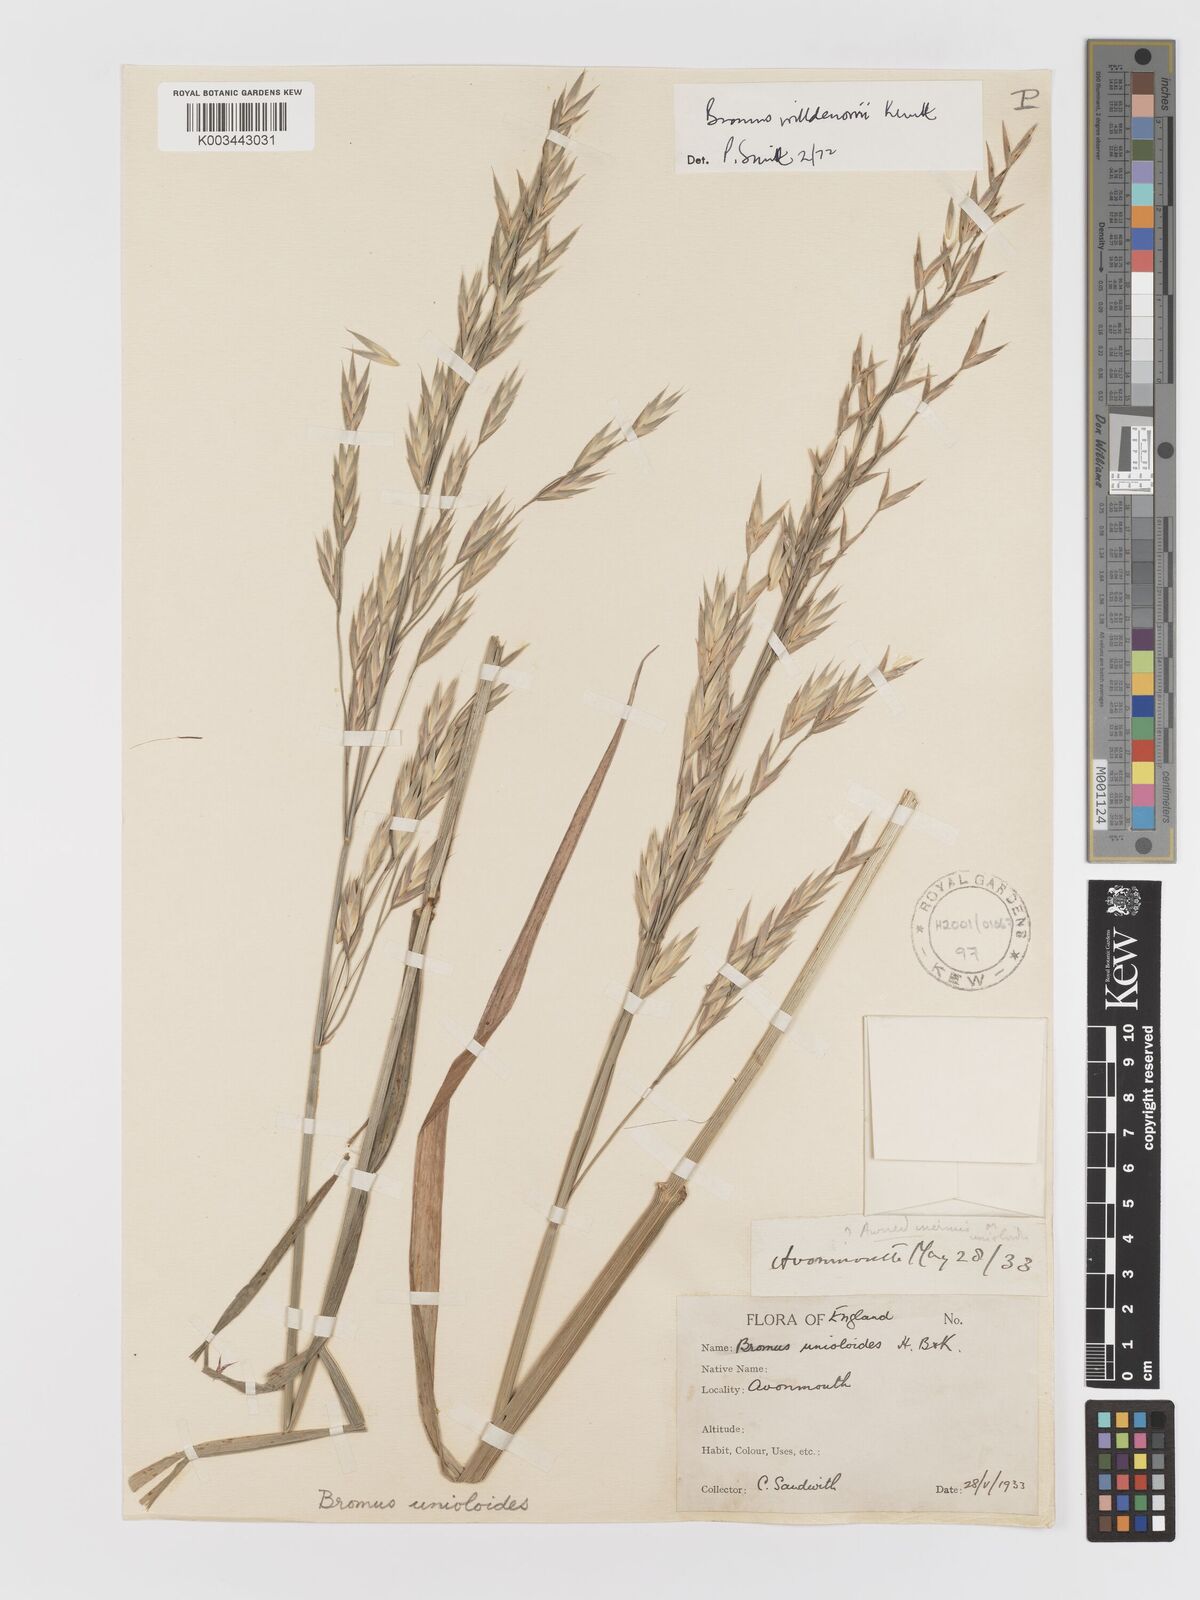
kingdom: Plantae
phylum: Tracheophyta
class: Liliopsida
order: Poales
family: Poaceae
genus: Bromus
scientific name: Bromus catharticus
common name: Rescuegrass
